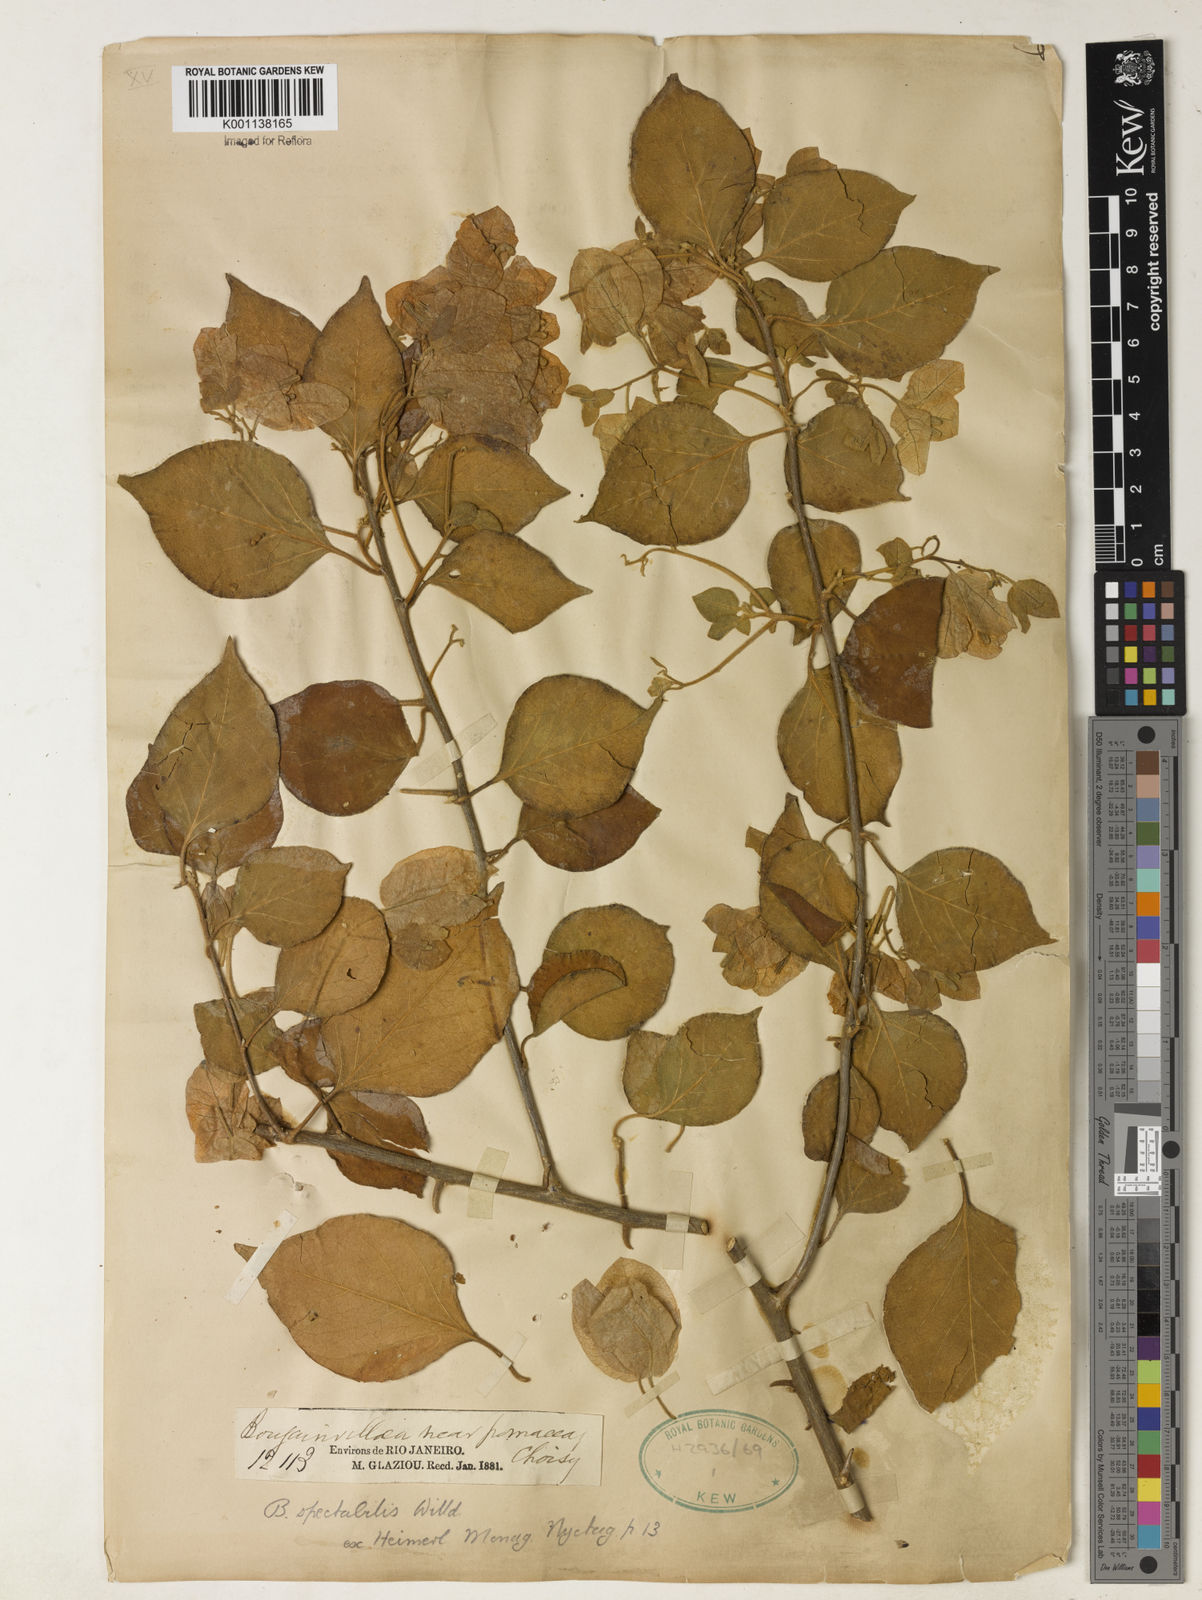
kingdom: Plantae
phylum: Tracheophyta
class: Magnoliopsida
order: Caryophyllales
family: Nyctaginaceae
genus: Bougainvillea
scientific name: Bougainvillea spectabilis
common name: Great bougainvillea
